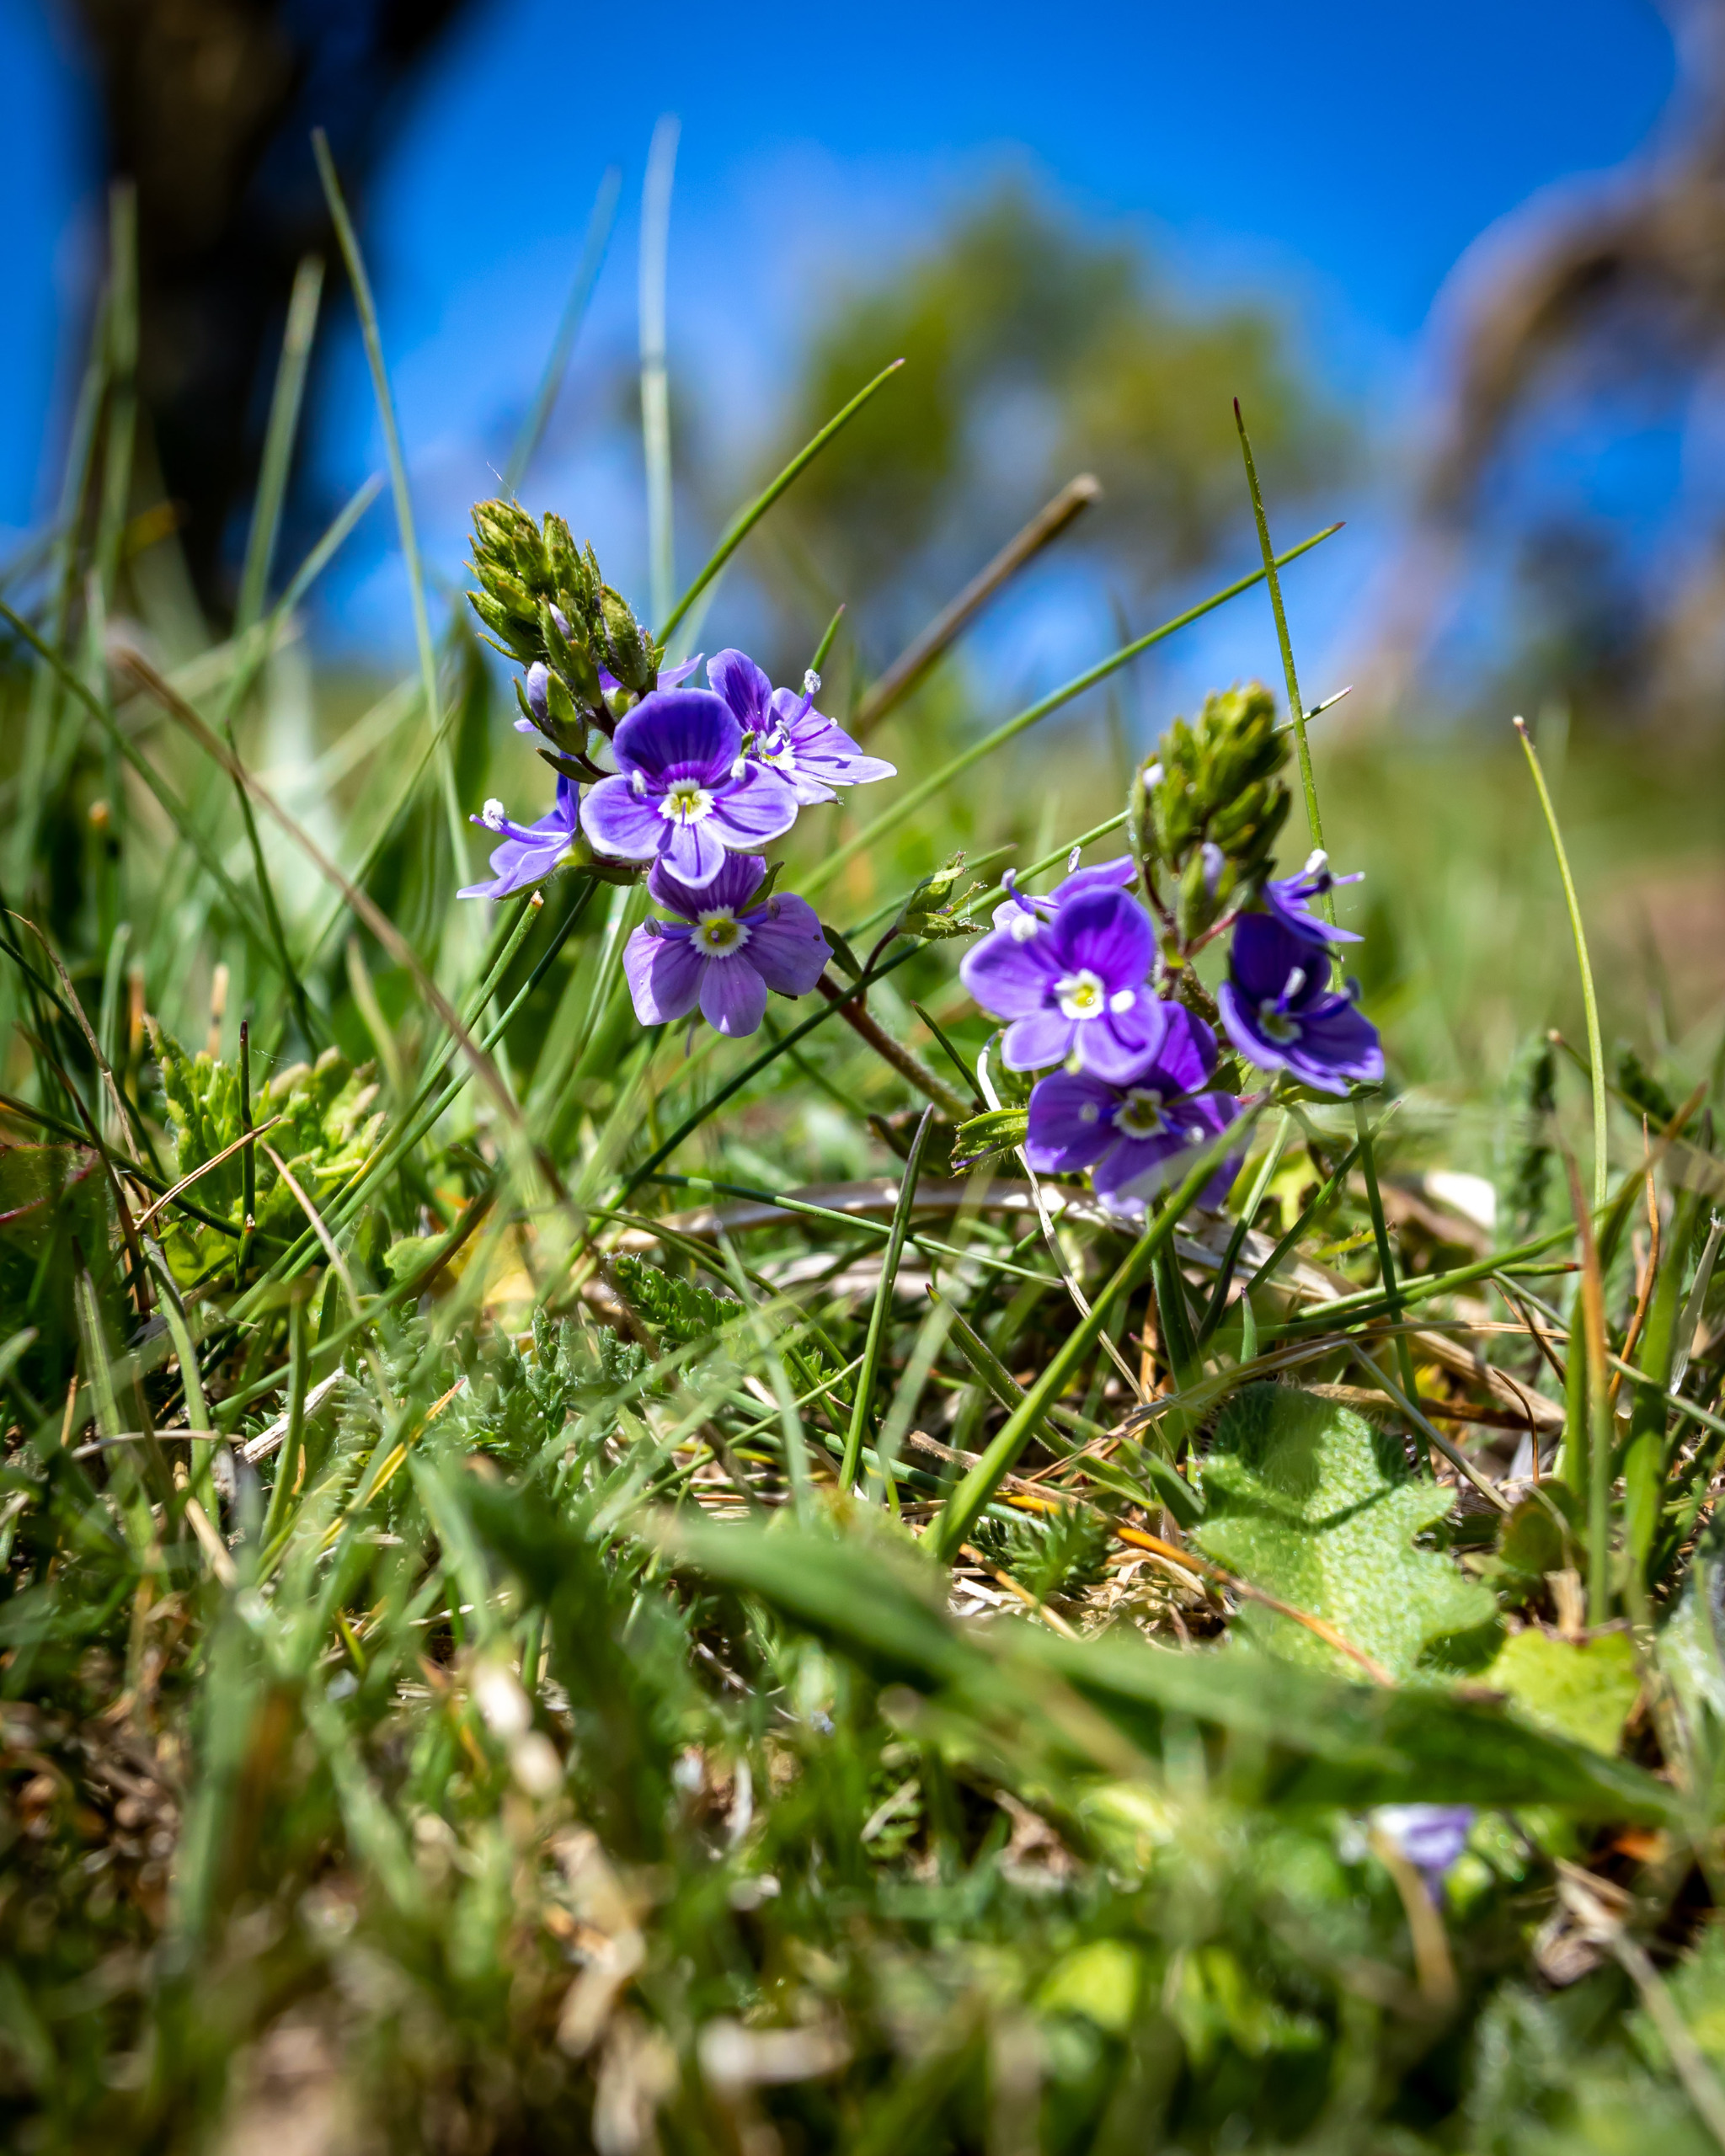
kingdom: Plantae
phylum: Tracheophyta
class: Magnoliopsida
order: Lamiales
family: Plantaginaceae
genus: Veronica
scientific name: Veronica chamaedrys
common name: Tveskægget ærenpris
